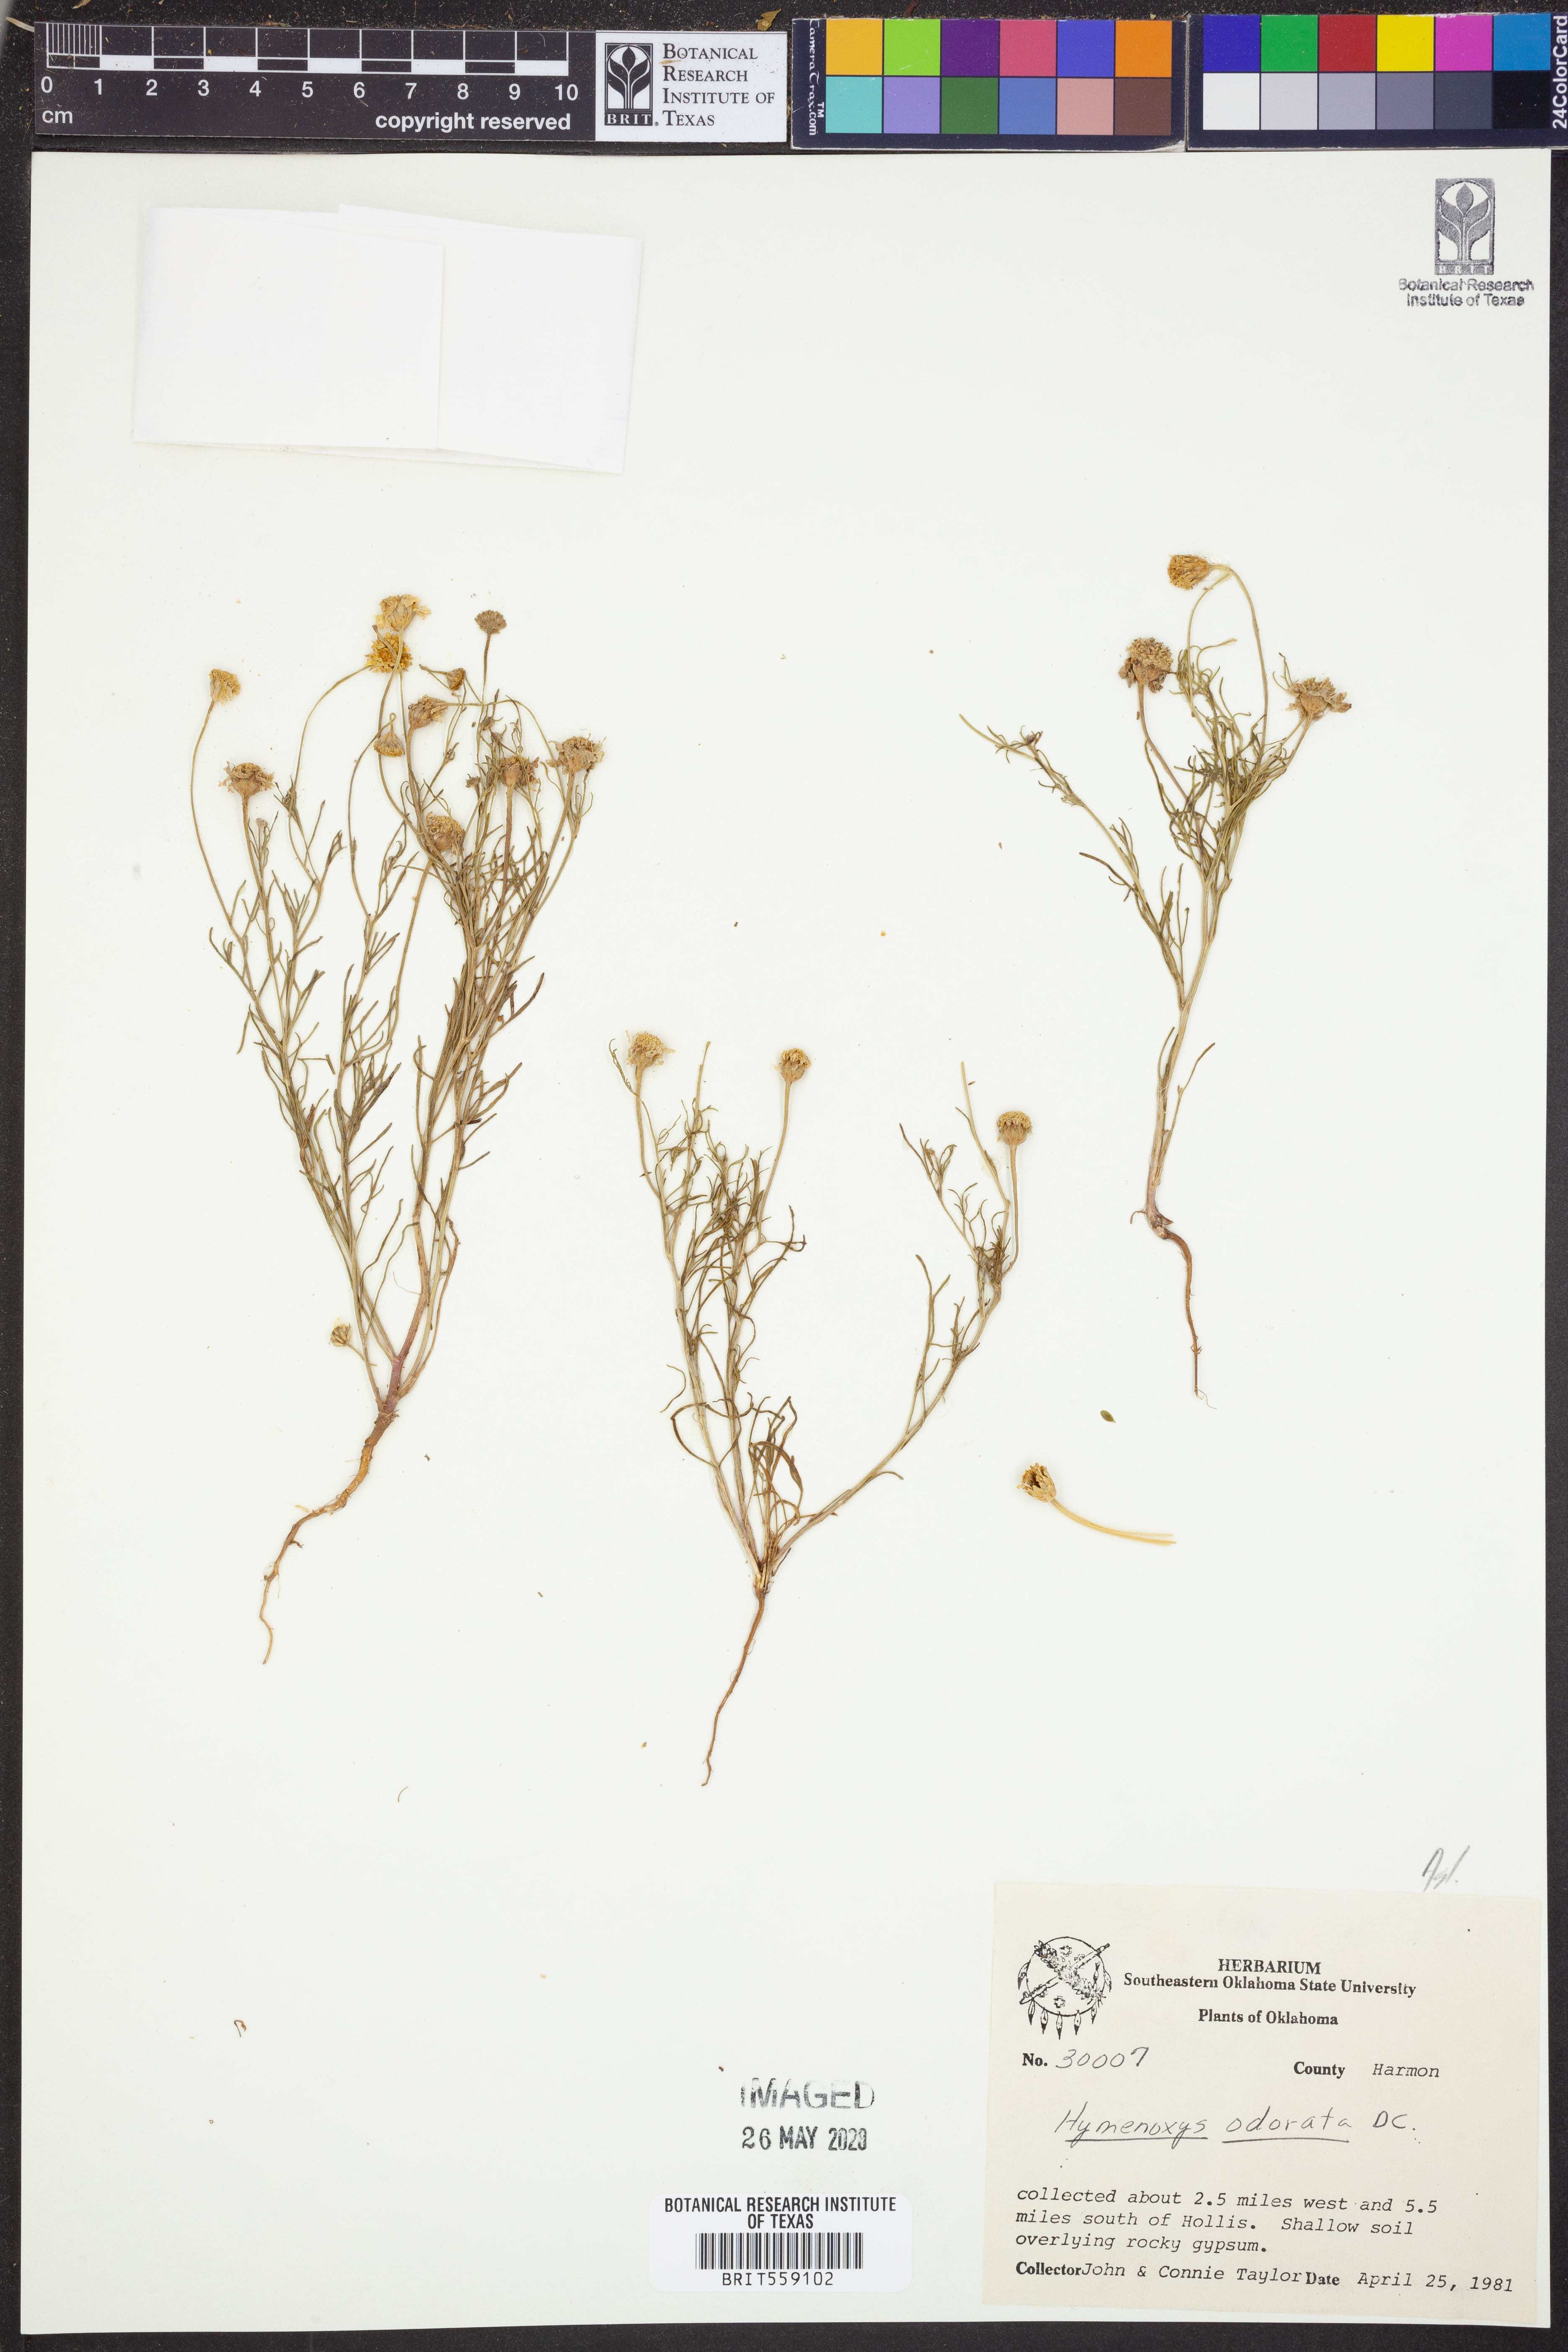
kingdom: Plantae
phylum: Tracheophyta
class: Magnoliopsida
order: Asterales
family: Asteraceae
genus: Hymenoxys
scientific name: Hymenoxys odorata
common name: Bitter rubberweed
